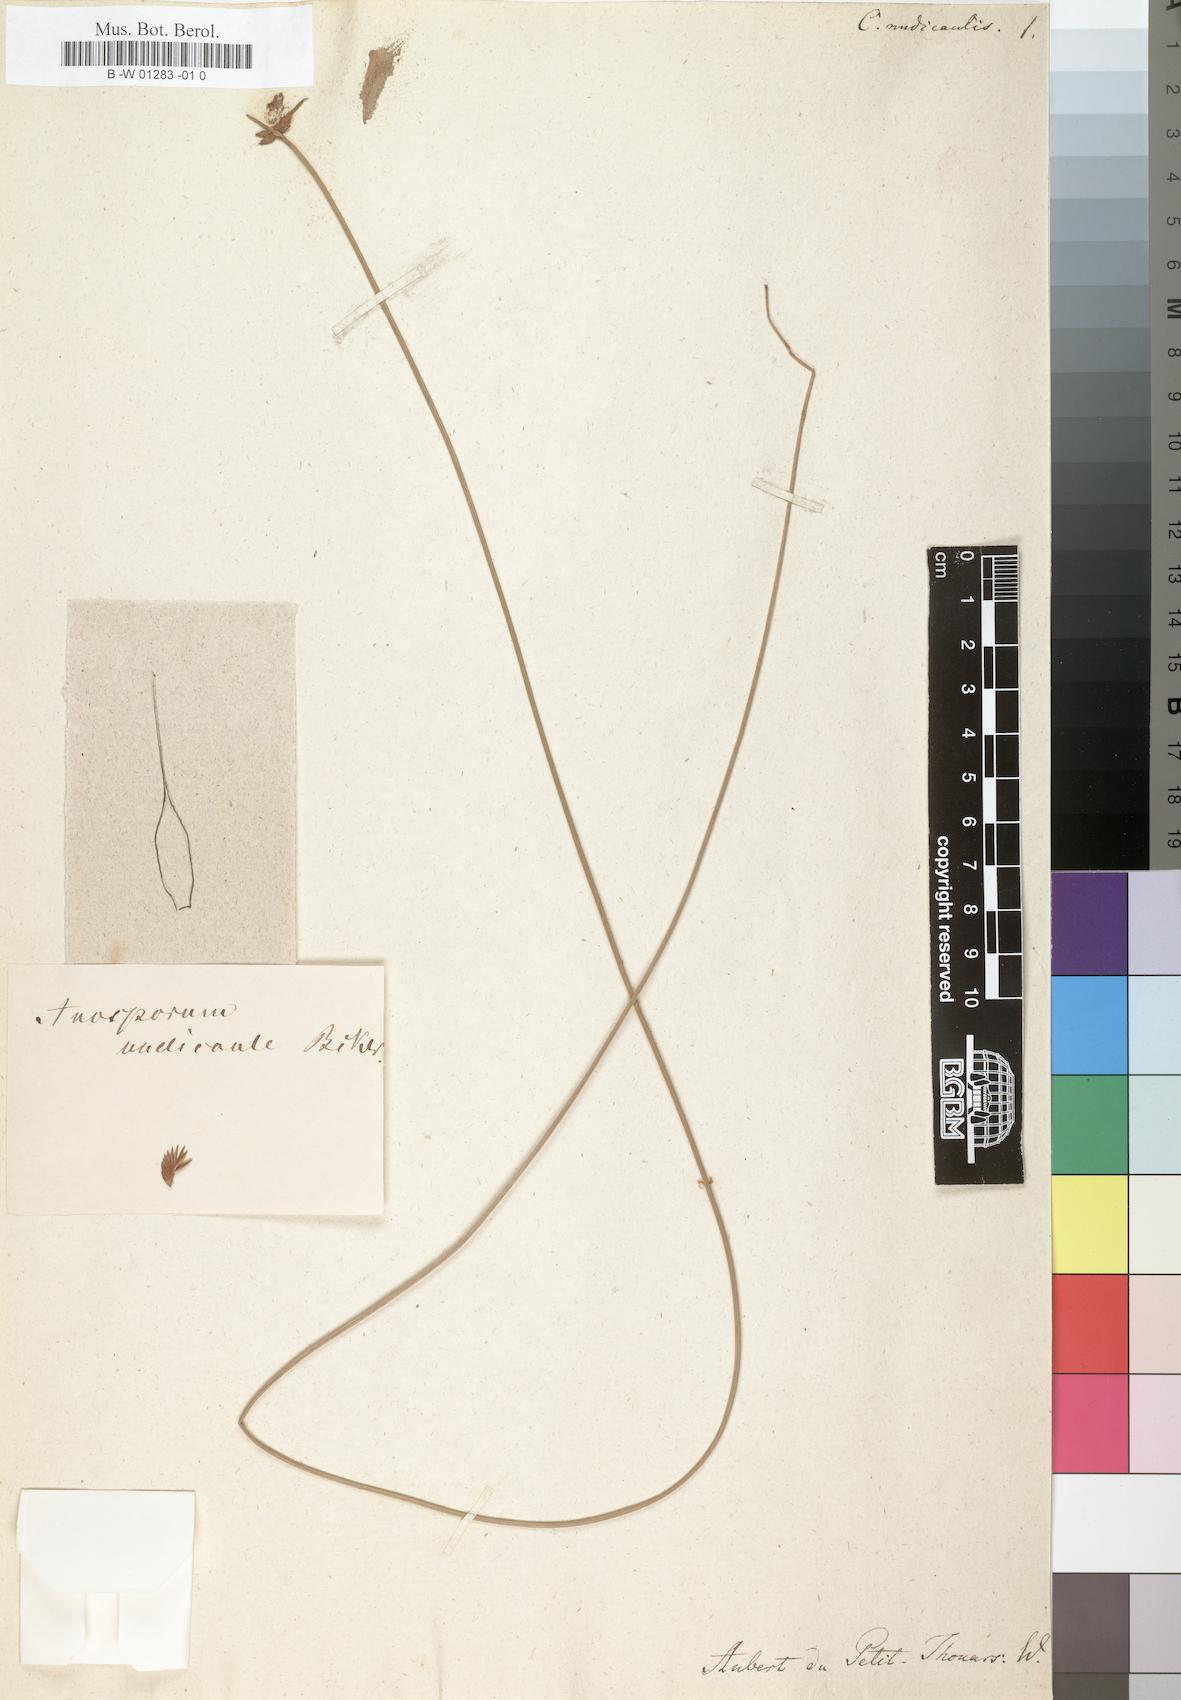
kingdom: Plantae
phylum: Tracheophyta
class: Liliopsida
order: Poales
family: Cyperaceae
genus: Cyperus
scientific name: Cyperus pectinatus
